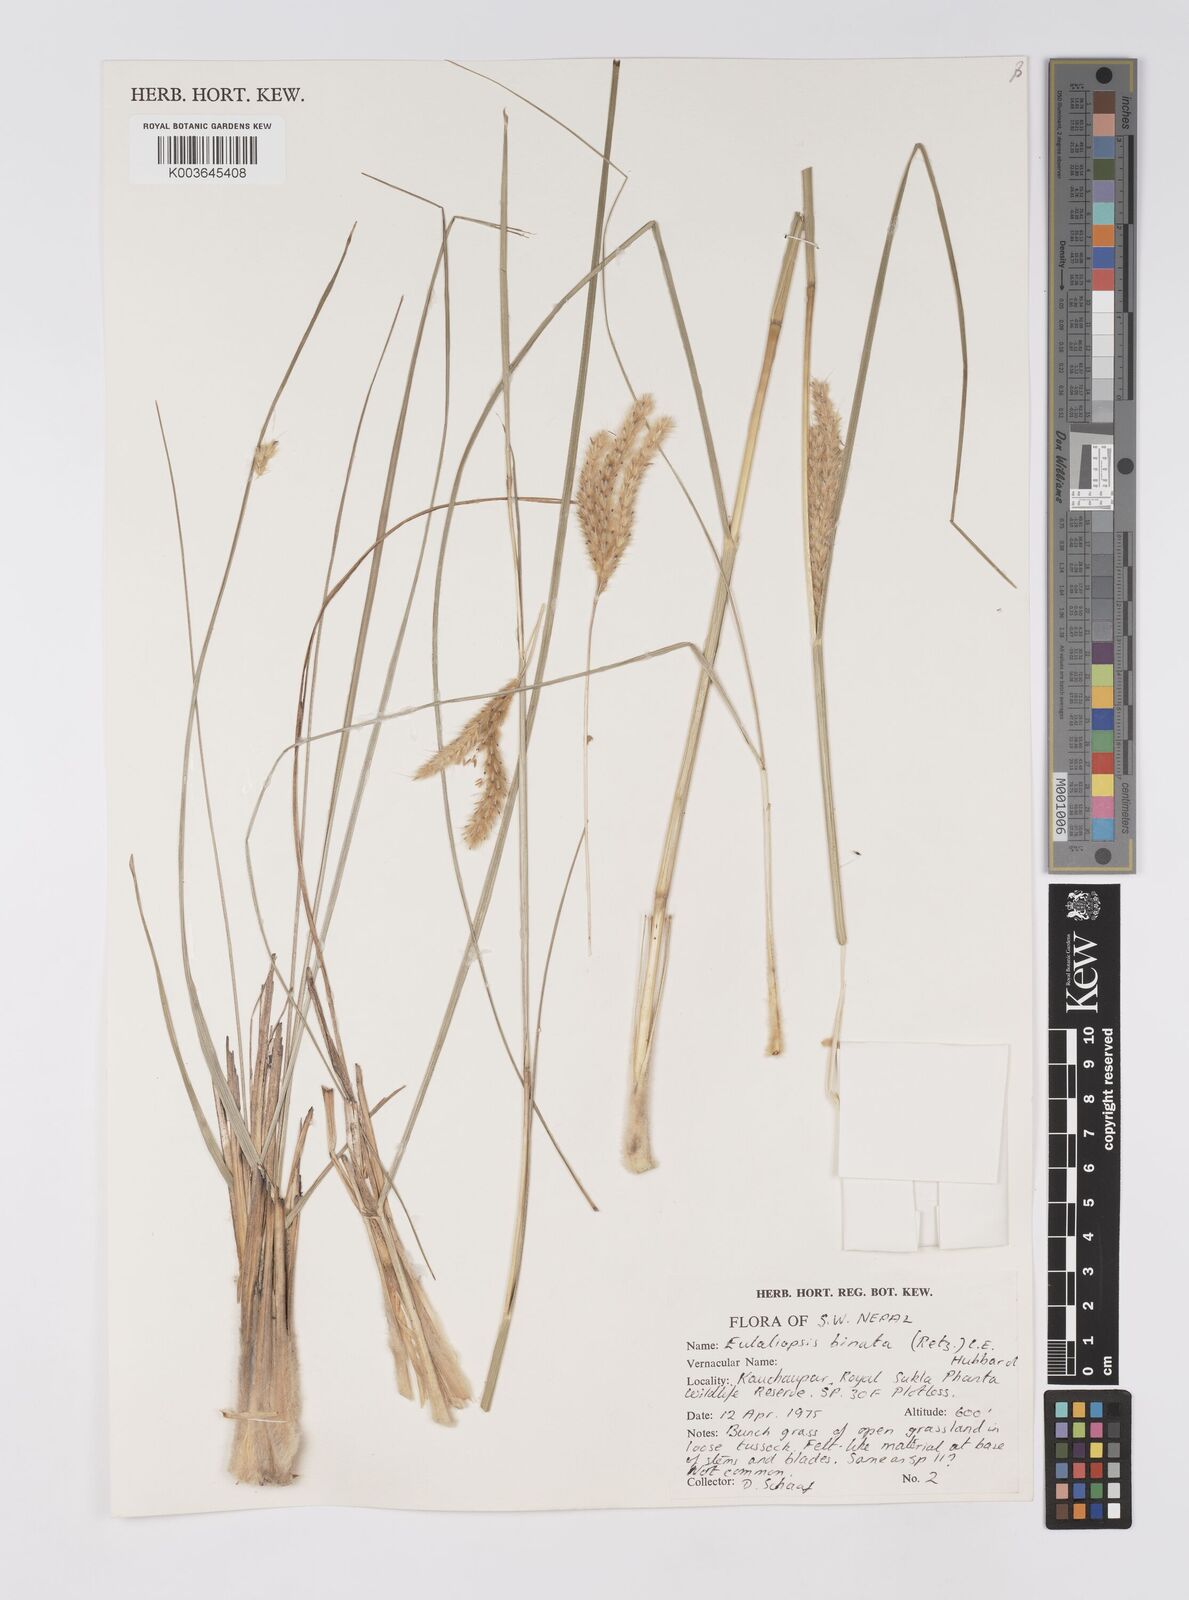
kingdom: Plantae
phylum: Tracheophyta
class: Liliopsida
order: Poales
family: Poaceae
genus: Eulaliopsis
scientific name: Eulaliopsis binata
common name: Baib grass
